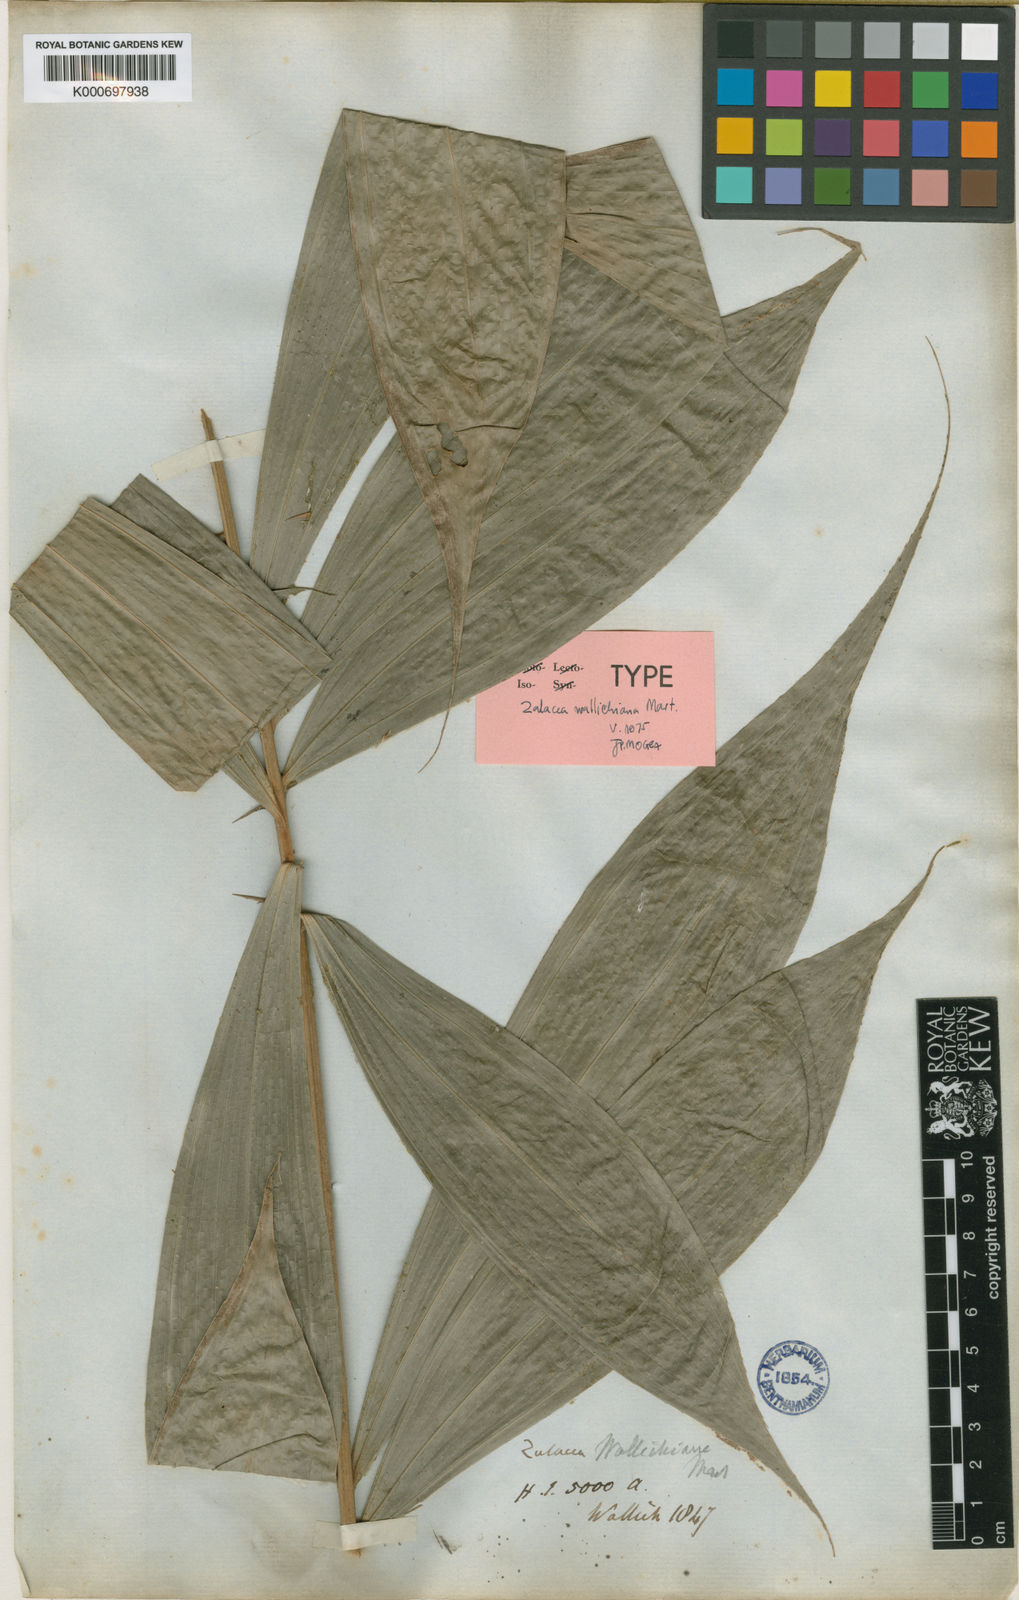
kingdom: Plantae
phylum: Tracheophyta
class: Liliopsida
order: Arecales
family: Arecaceae
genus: Salacca
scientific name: Salacca wallichiana
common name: Rakum palm
